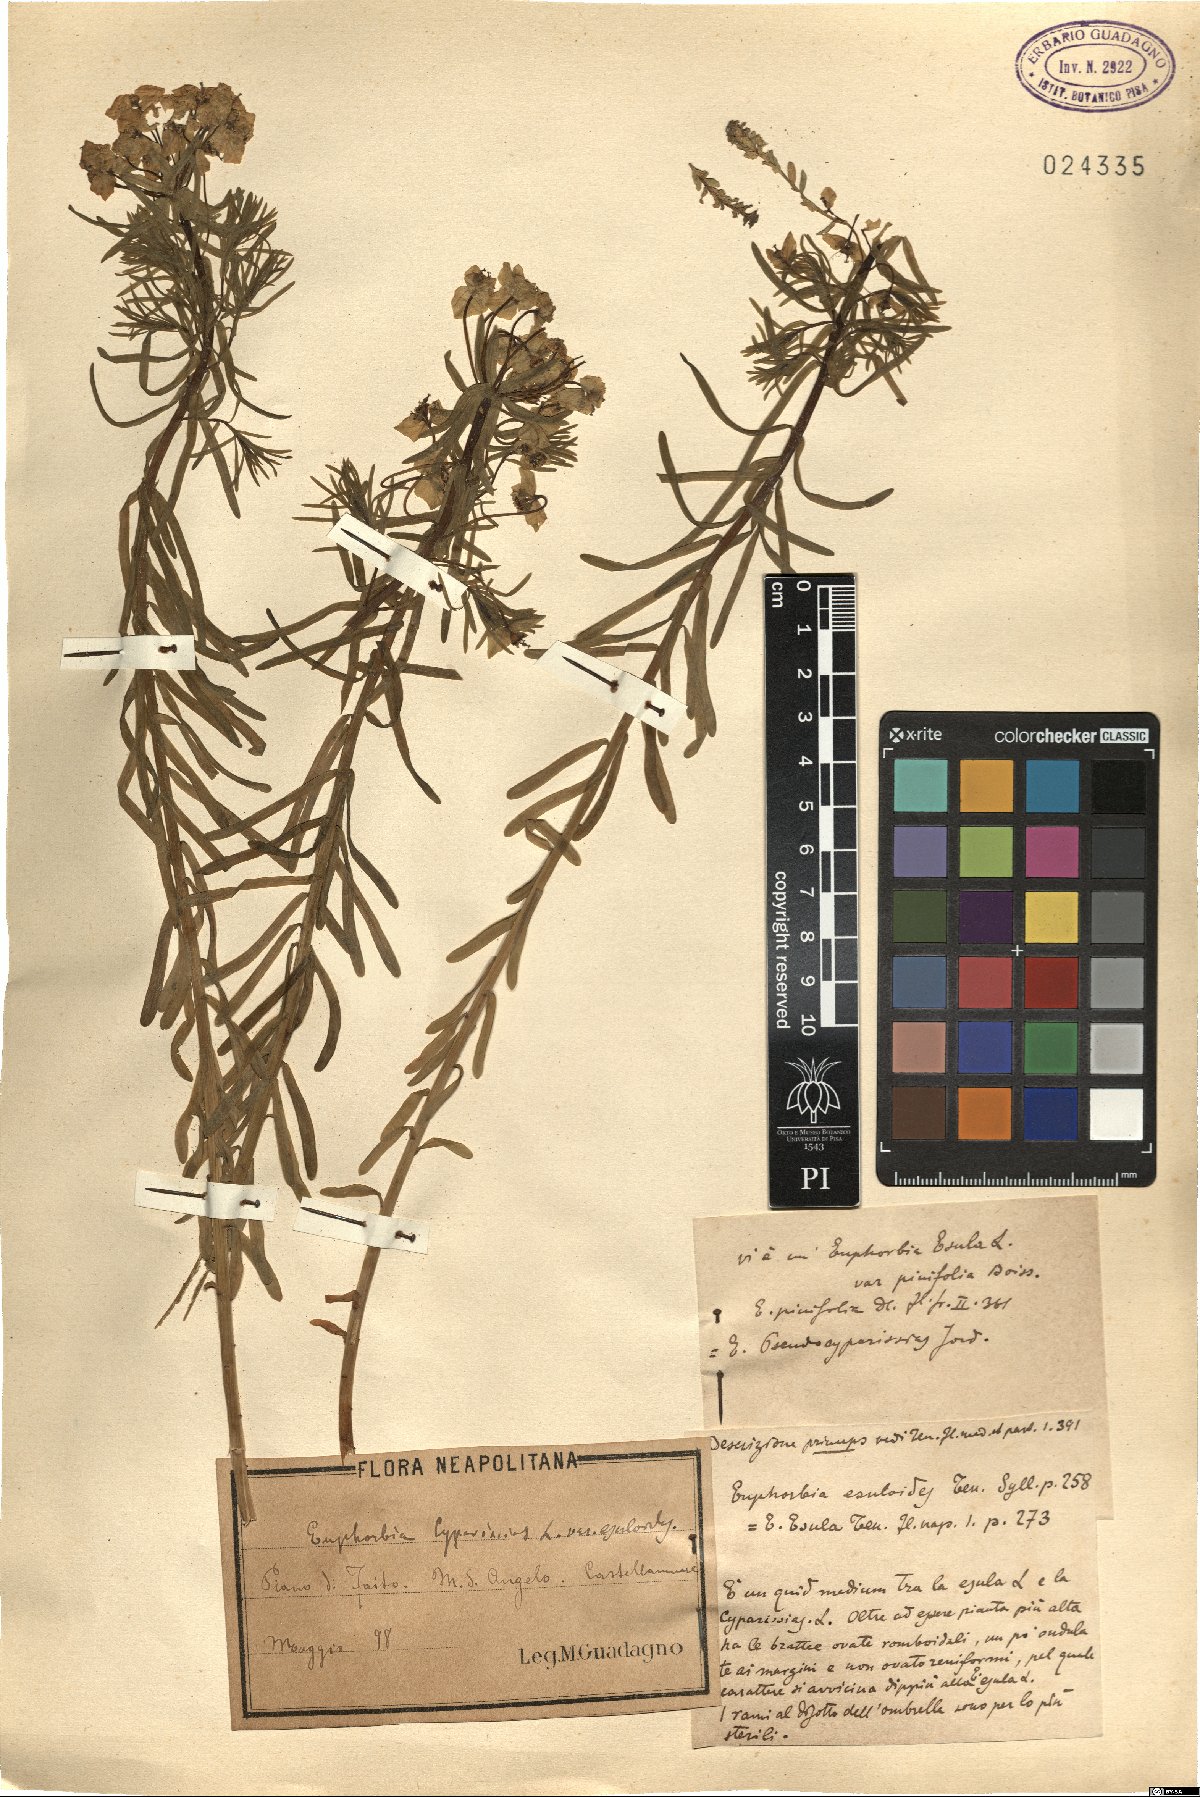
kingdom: Plantae
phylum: Tracheophyta
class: Magnoliopsida
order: Malpighiales
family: Euphorbiaceae
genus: Euphorbia
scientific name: Euphorbia cyparissias
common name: Cypress spurge
